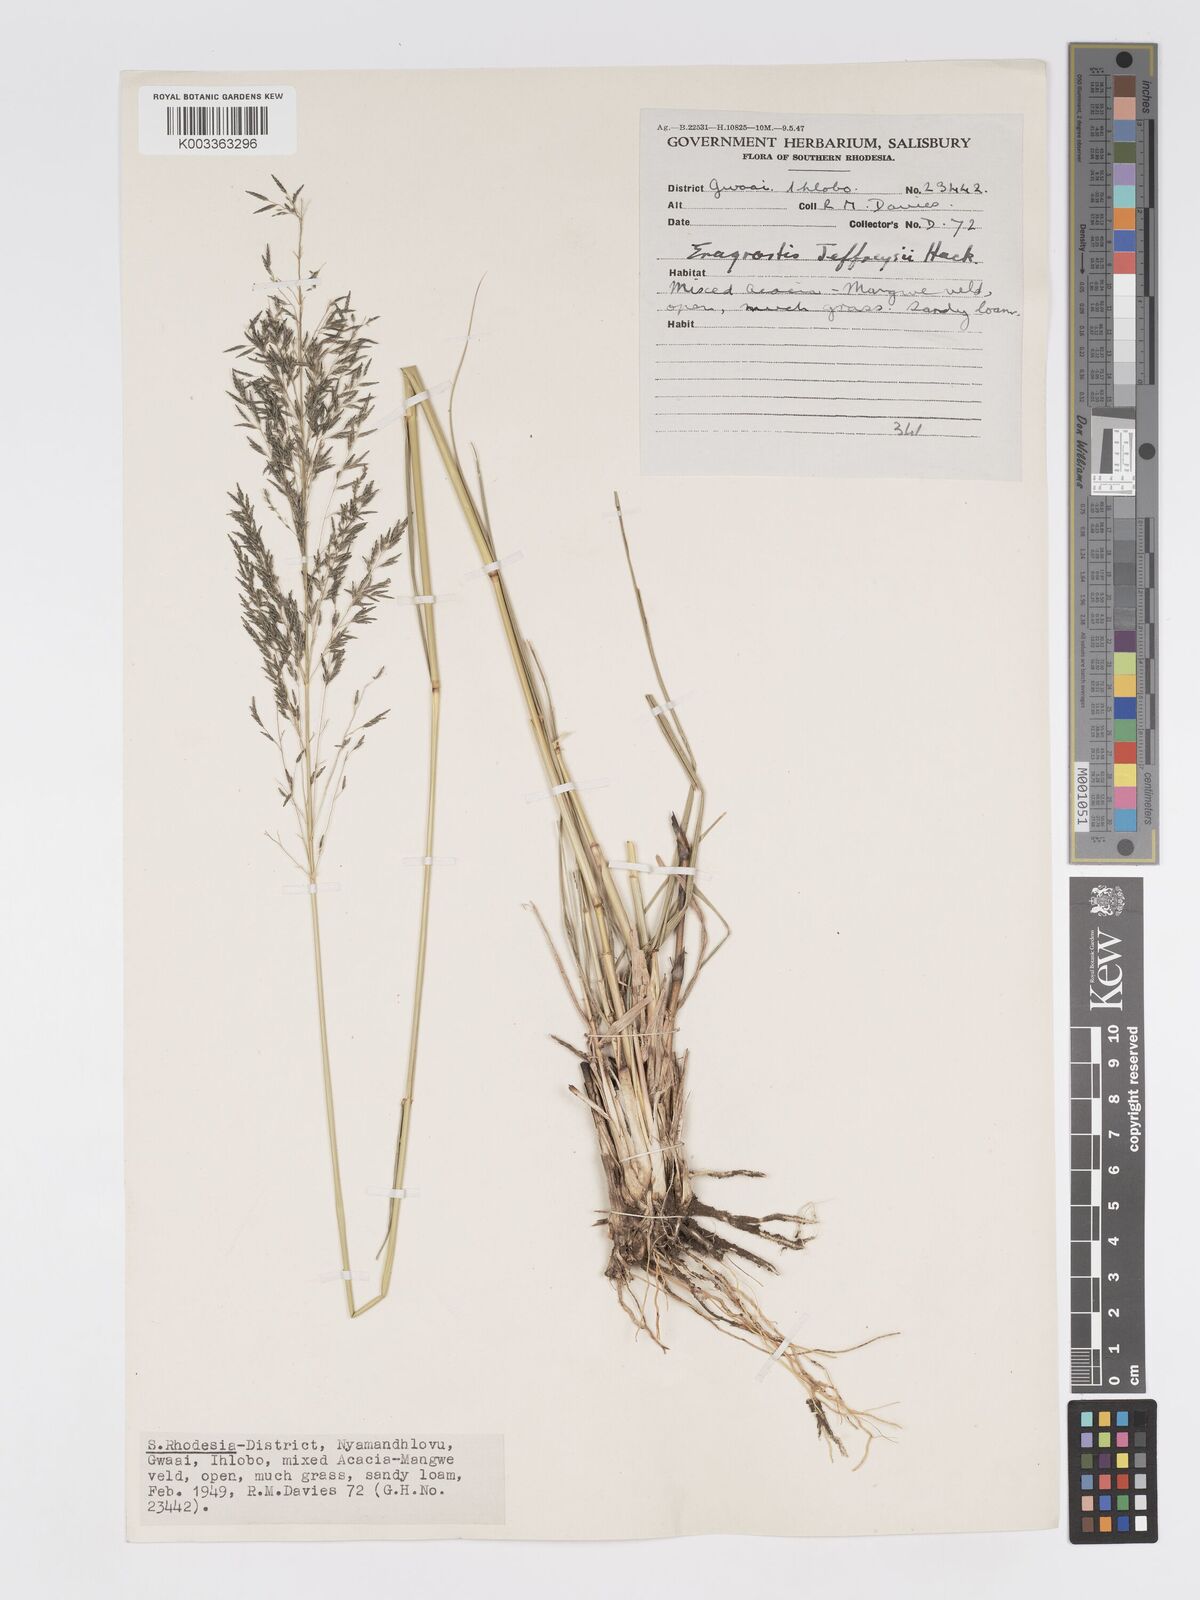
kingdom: Plantae
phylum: Tracheophyta
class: Liliopsida
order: Poales
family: Poaceae
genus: Eragrostis
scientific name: Eragrostis curvula
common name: African love-grass
